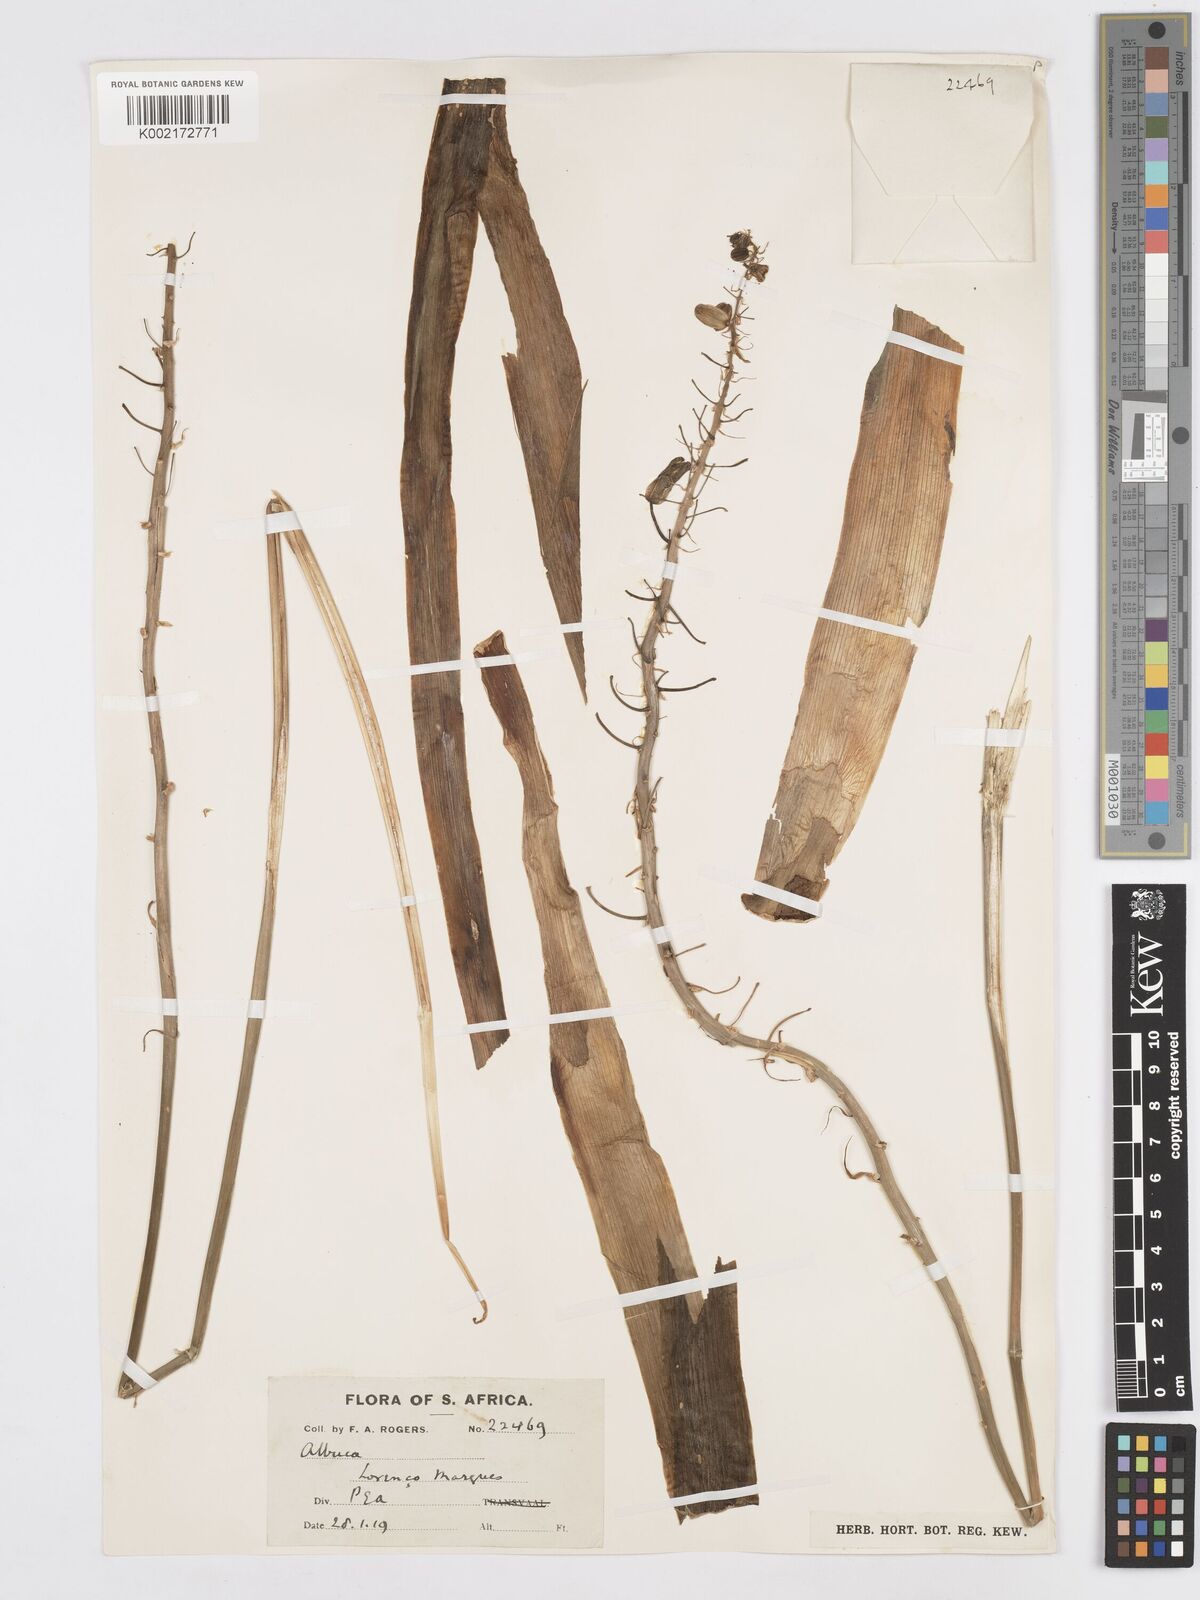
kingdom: Plantae
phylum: Tracheophyta
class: Liliopsida
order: Asparagales
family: Asparagaceae
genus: Albuca
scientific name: Albuca
